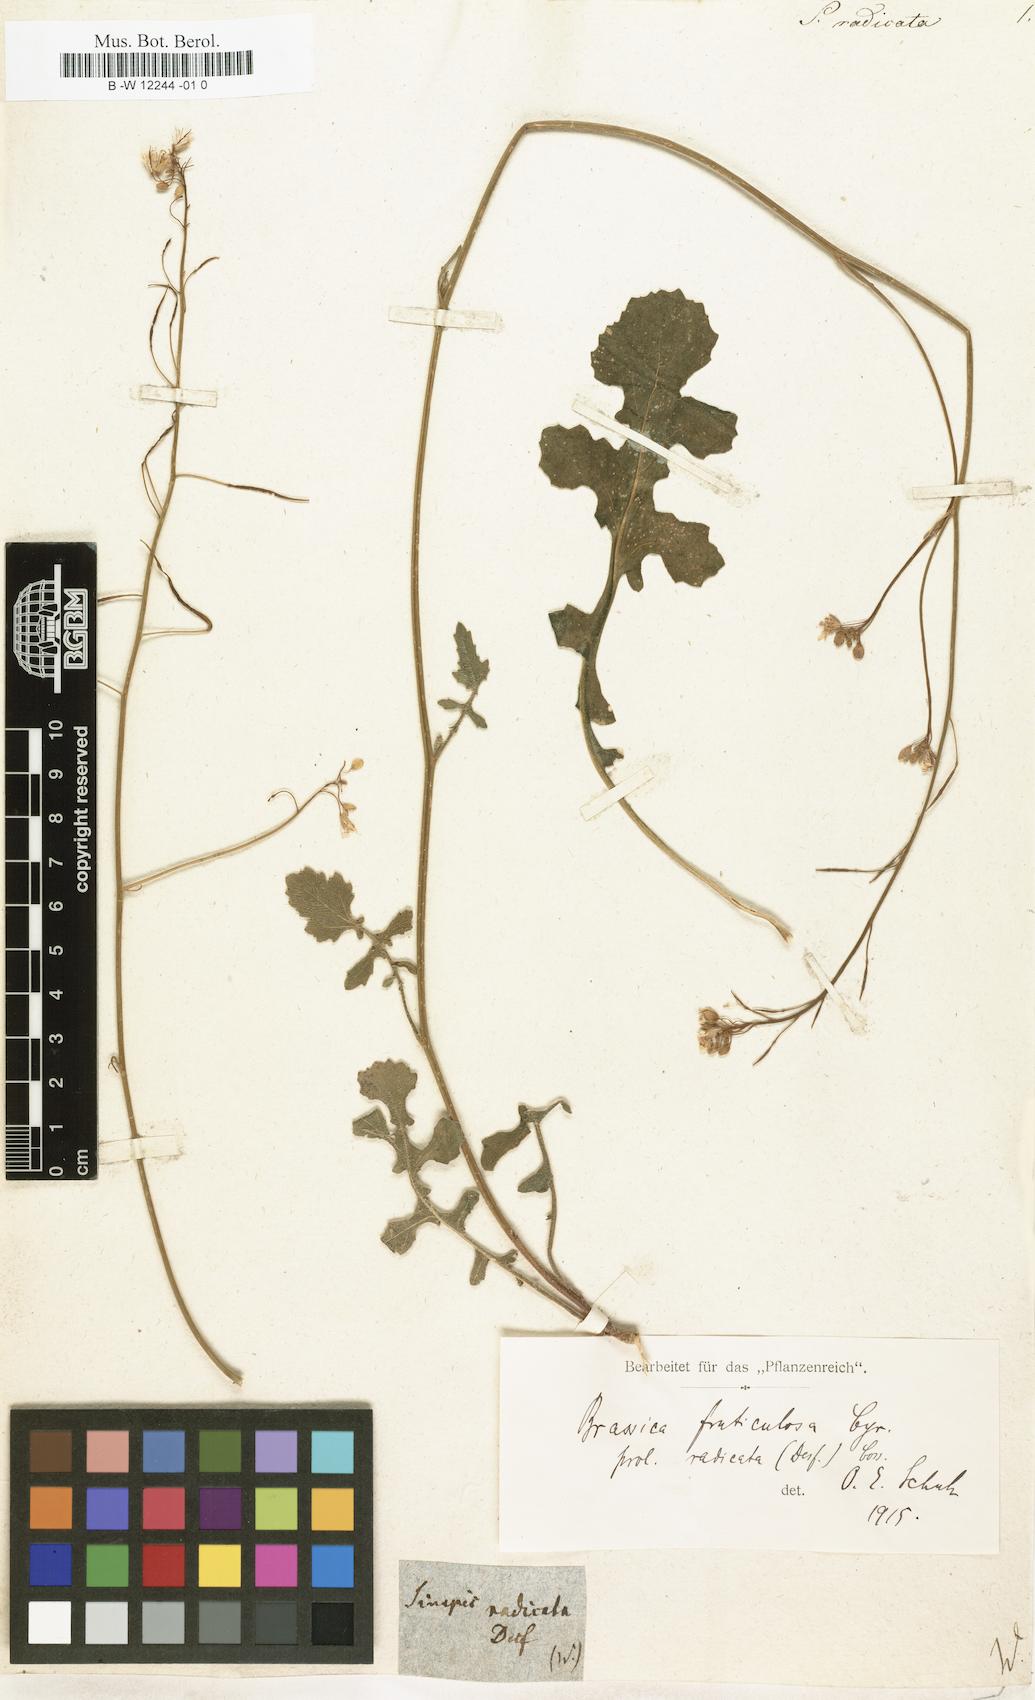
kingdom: Plantae
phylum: Tracheophyta
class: Magnoliopsida
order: Brassicales
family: Brassicaceae
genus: Brassica
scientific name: Brassica fruticulosa
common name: Twiggy turnip
